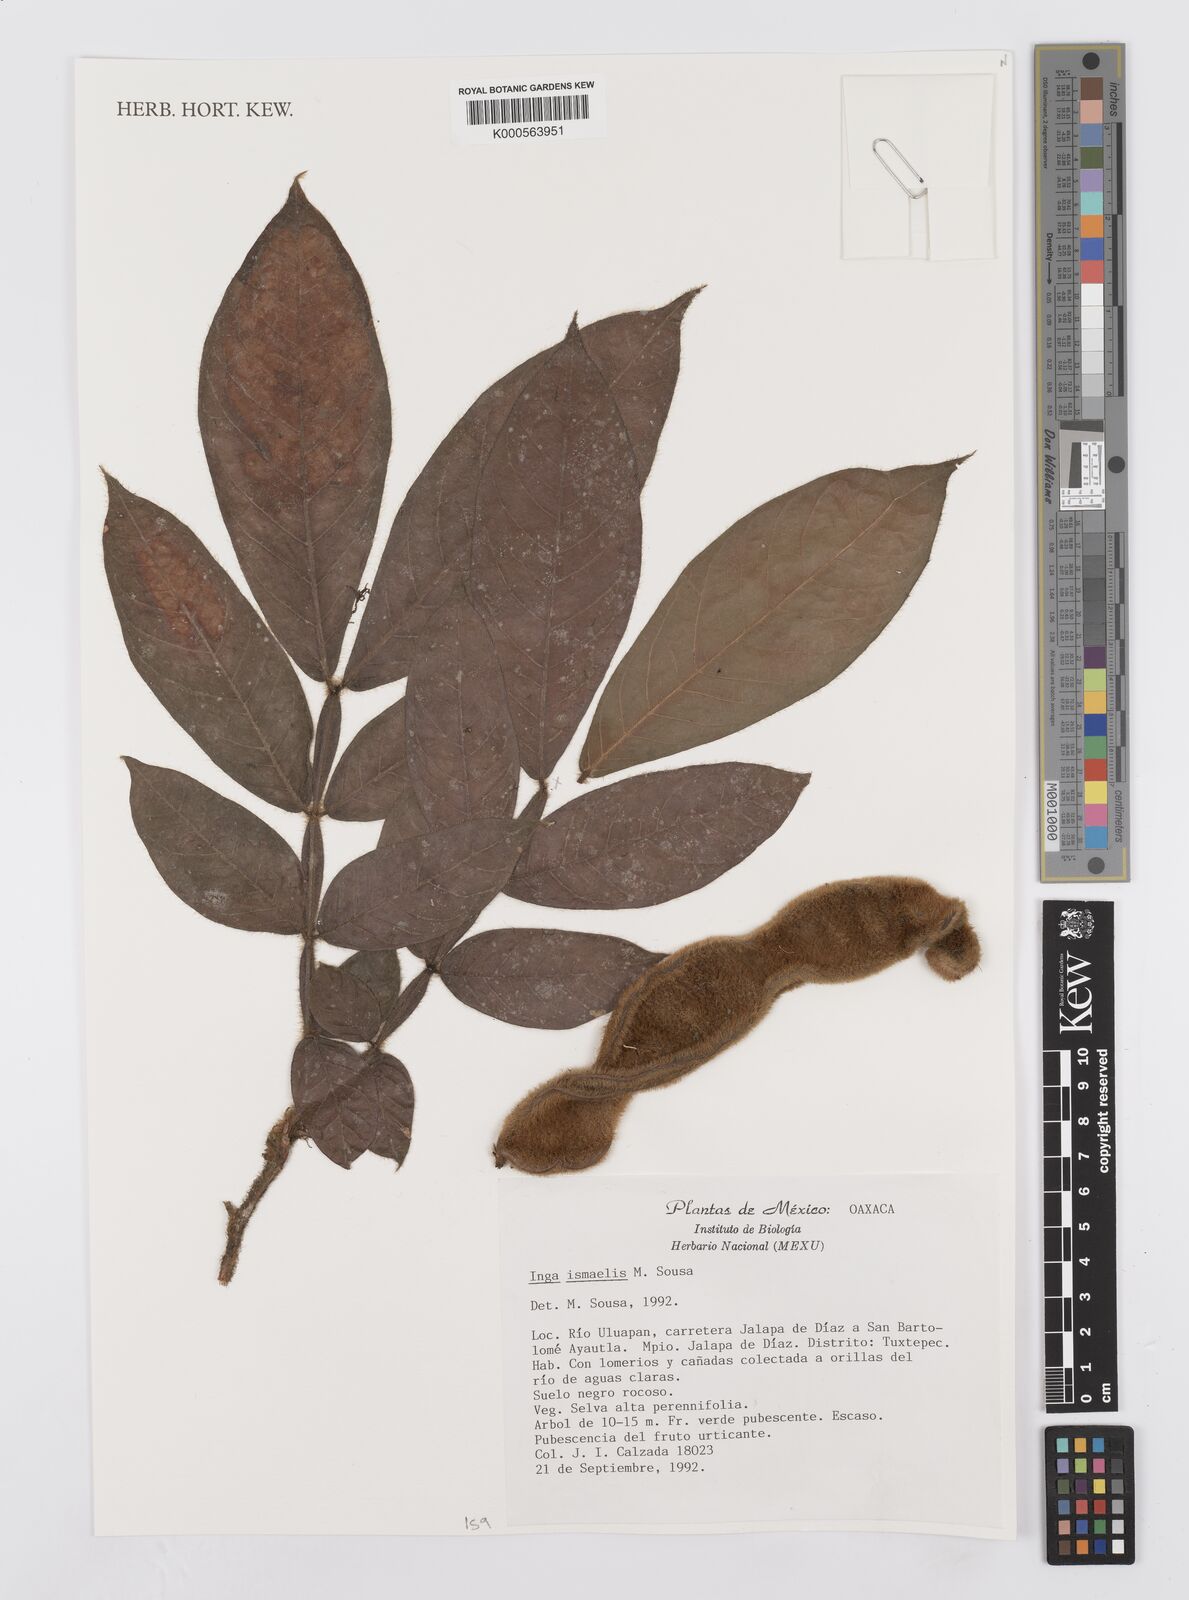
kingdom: Plantae
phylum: Tracheophyta
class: Magnoliopsida
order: Fabales
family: Fabaceae
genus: Inga
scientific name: Inga ismaelis
